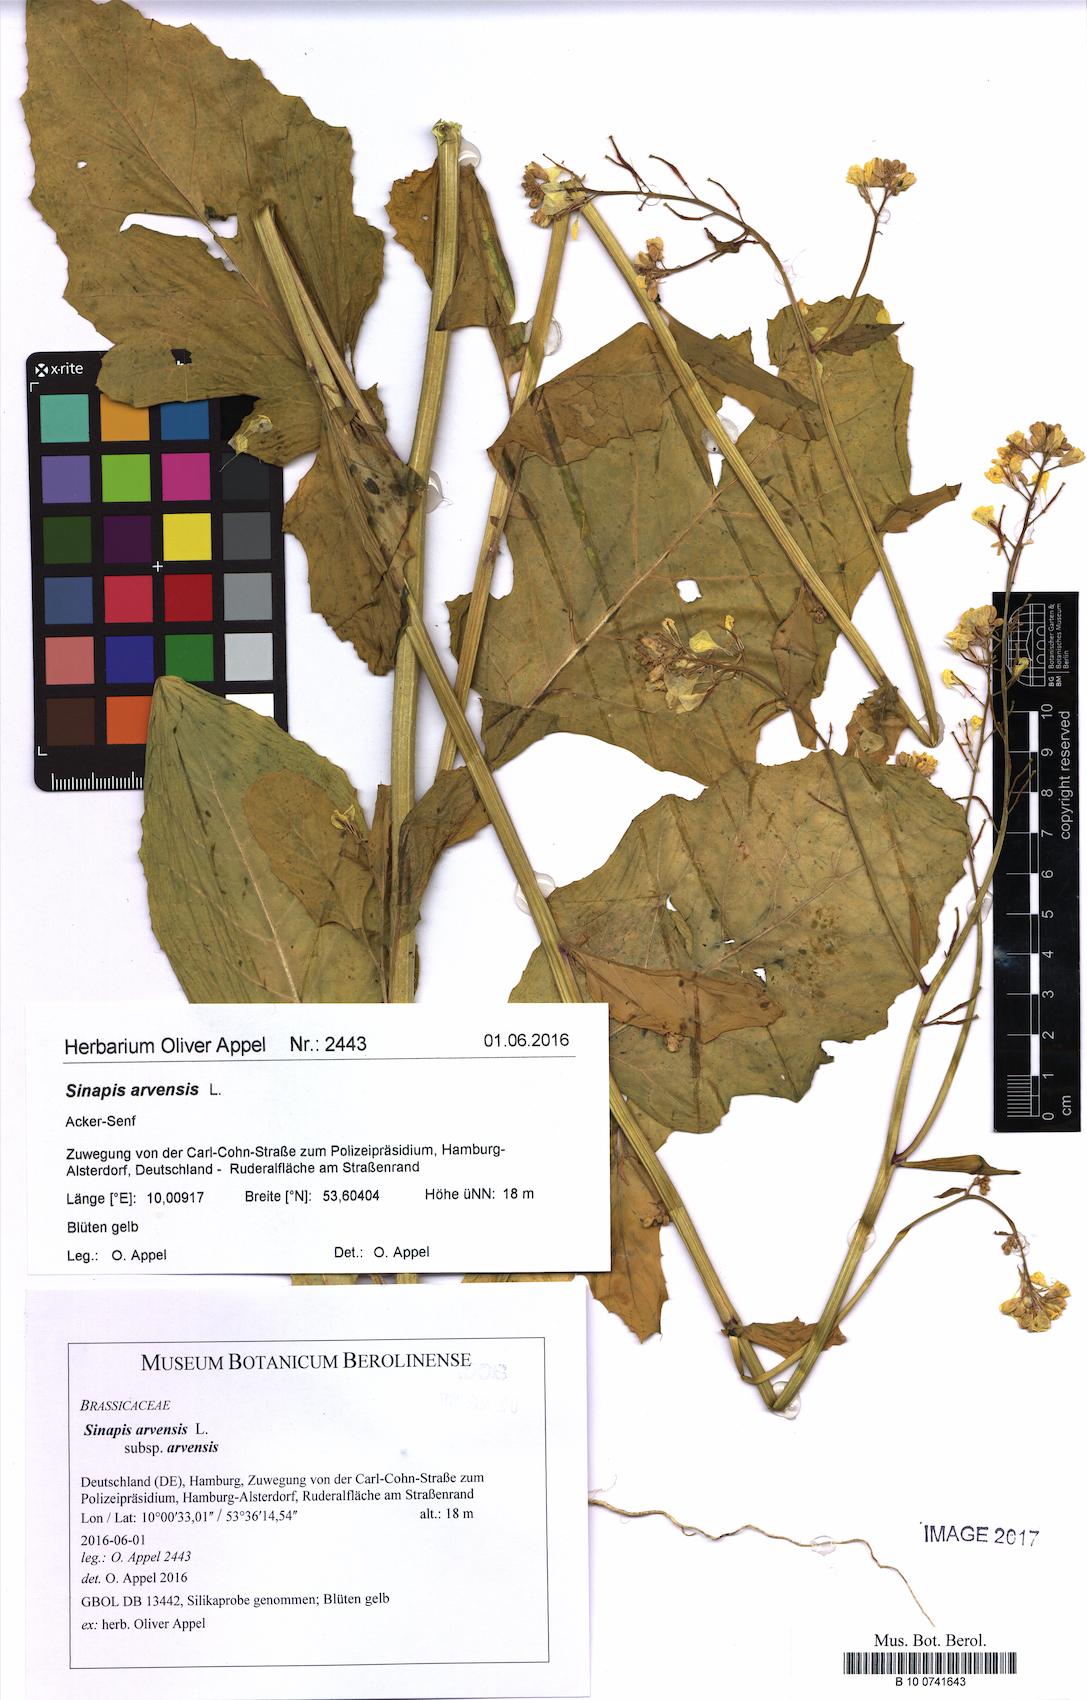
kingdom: Plantae
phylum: Tracheophyta
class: Magnoliopsida
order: Brassicales
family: Brassicaceae
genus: Sinapis
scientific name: Sinapis arvensis
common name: Charlock
